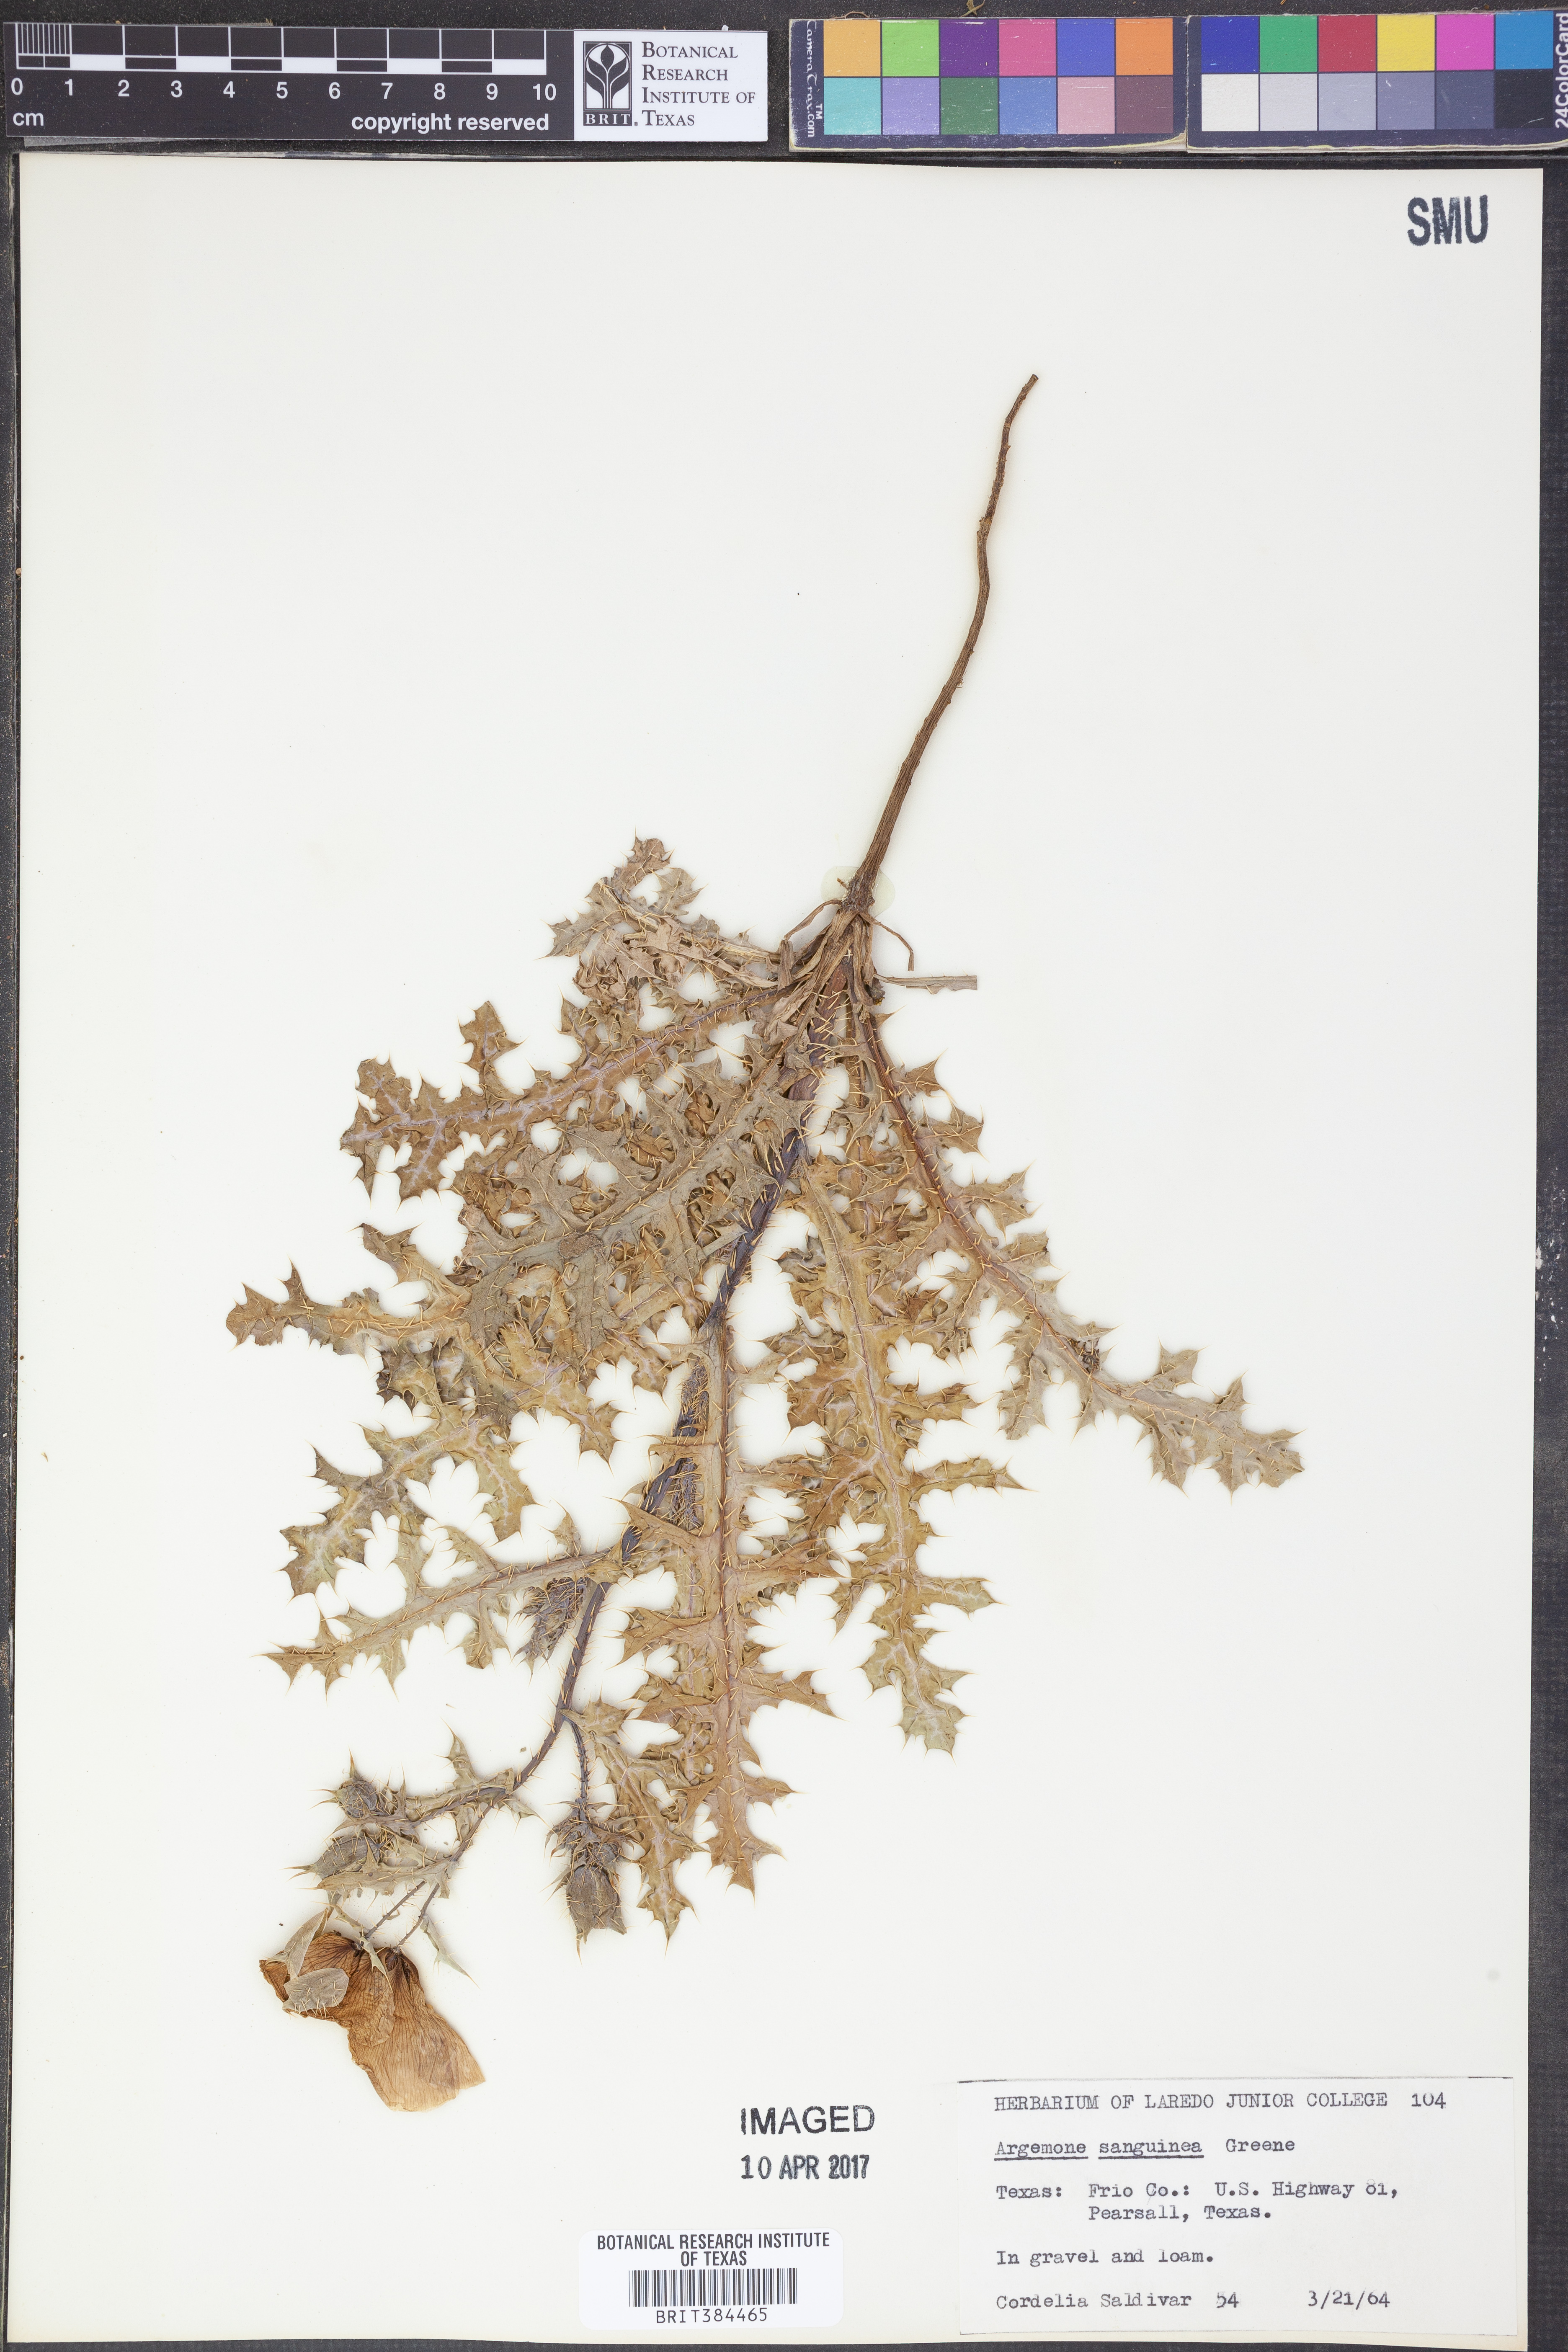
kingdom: Plantae
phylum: Tracheophyta
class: Magnoliopsida
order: Ranunculales
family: Papaveraceae
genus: Argemone
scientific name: Argemone sanguinea
